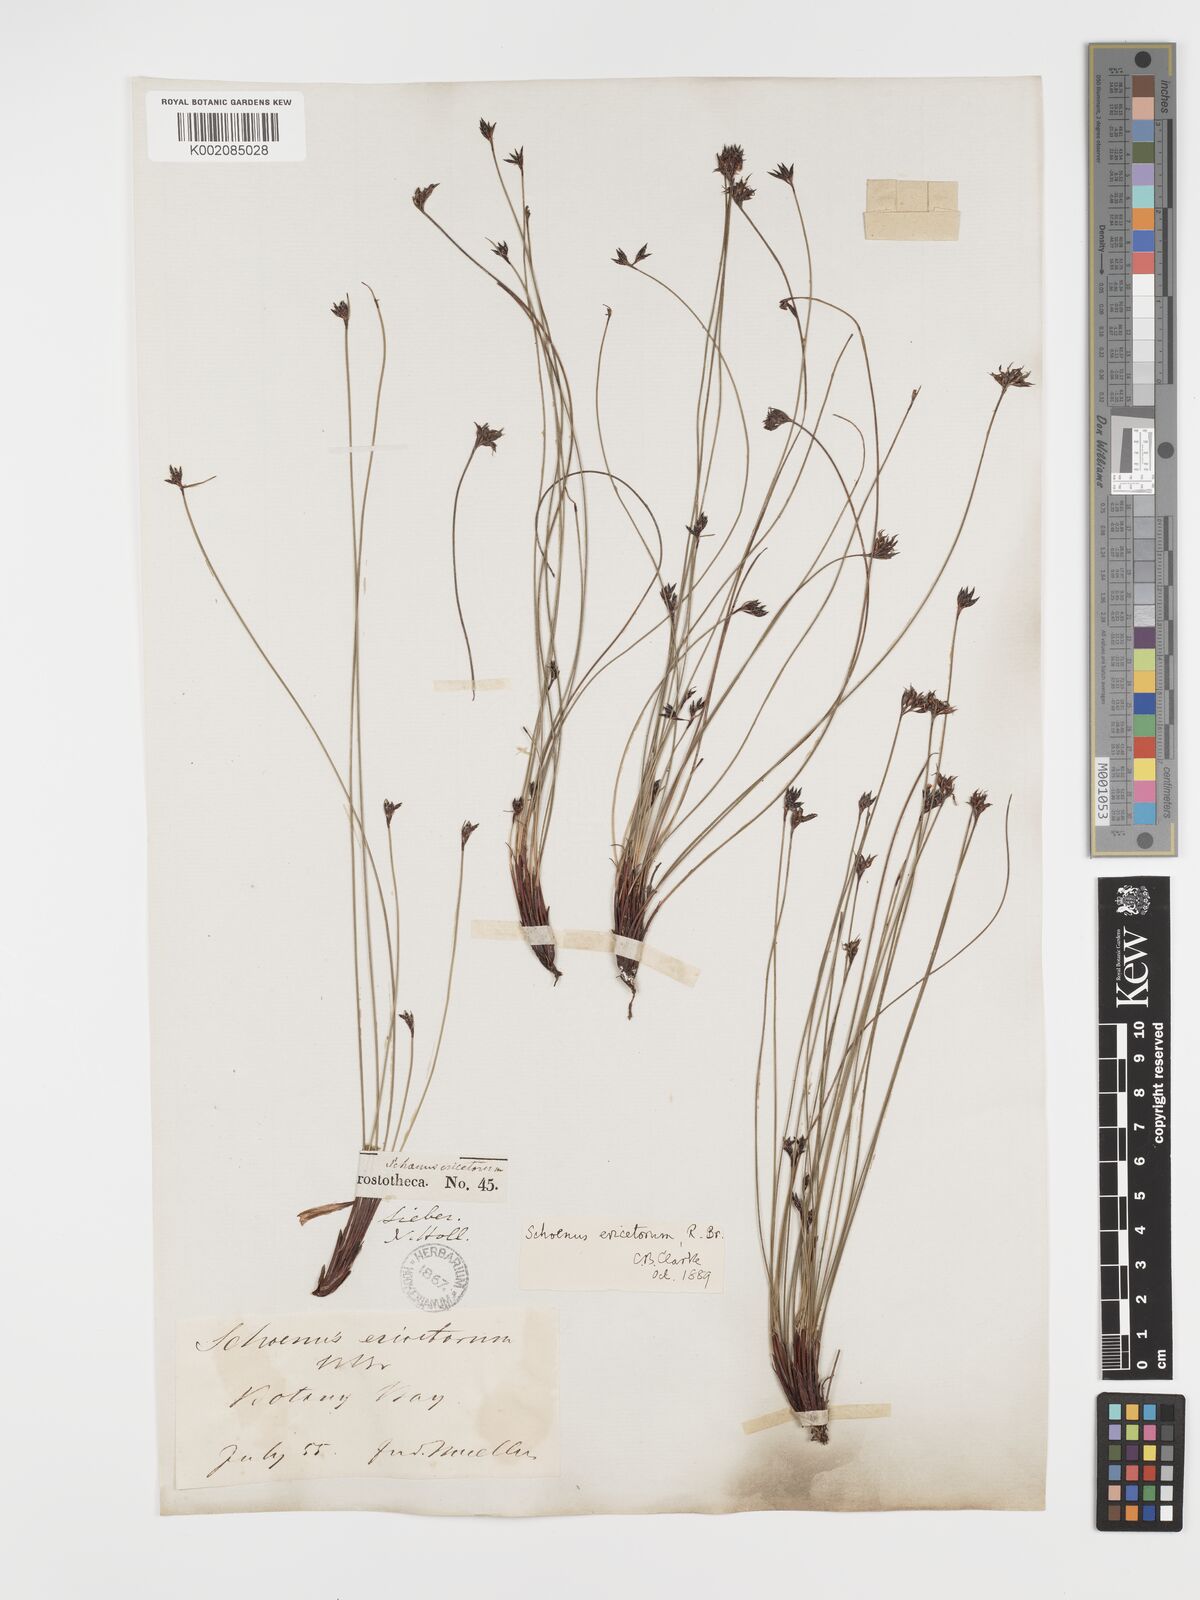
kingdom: Plantae
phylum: Tracheophyta
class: Liliopsida
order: Poales
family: Cyperaceae
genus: Schoenus
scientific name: Schoenus ericetorum
